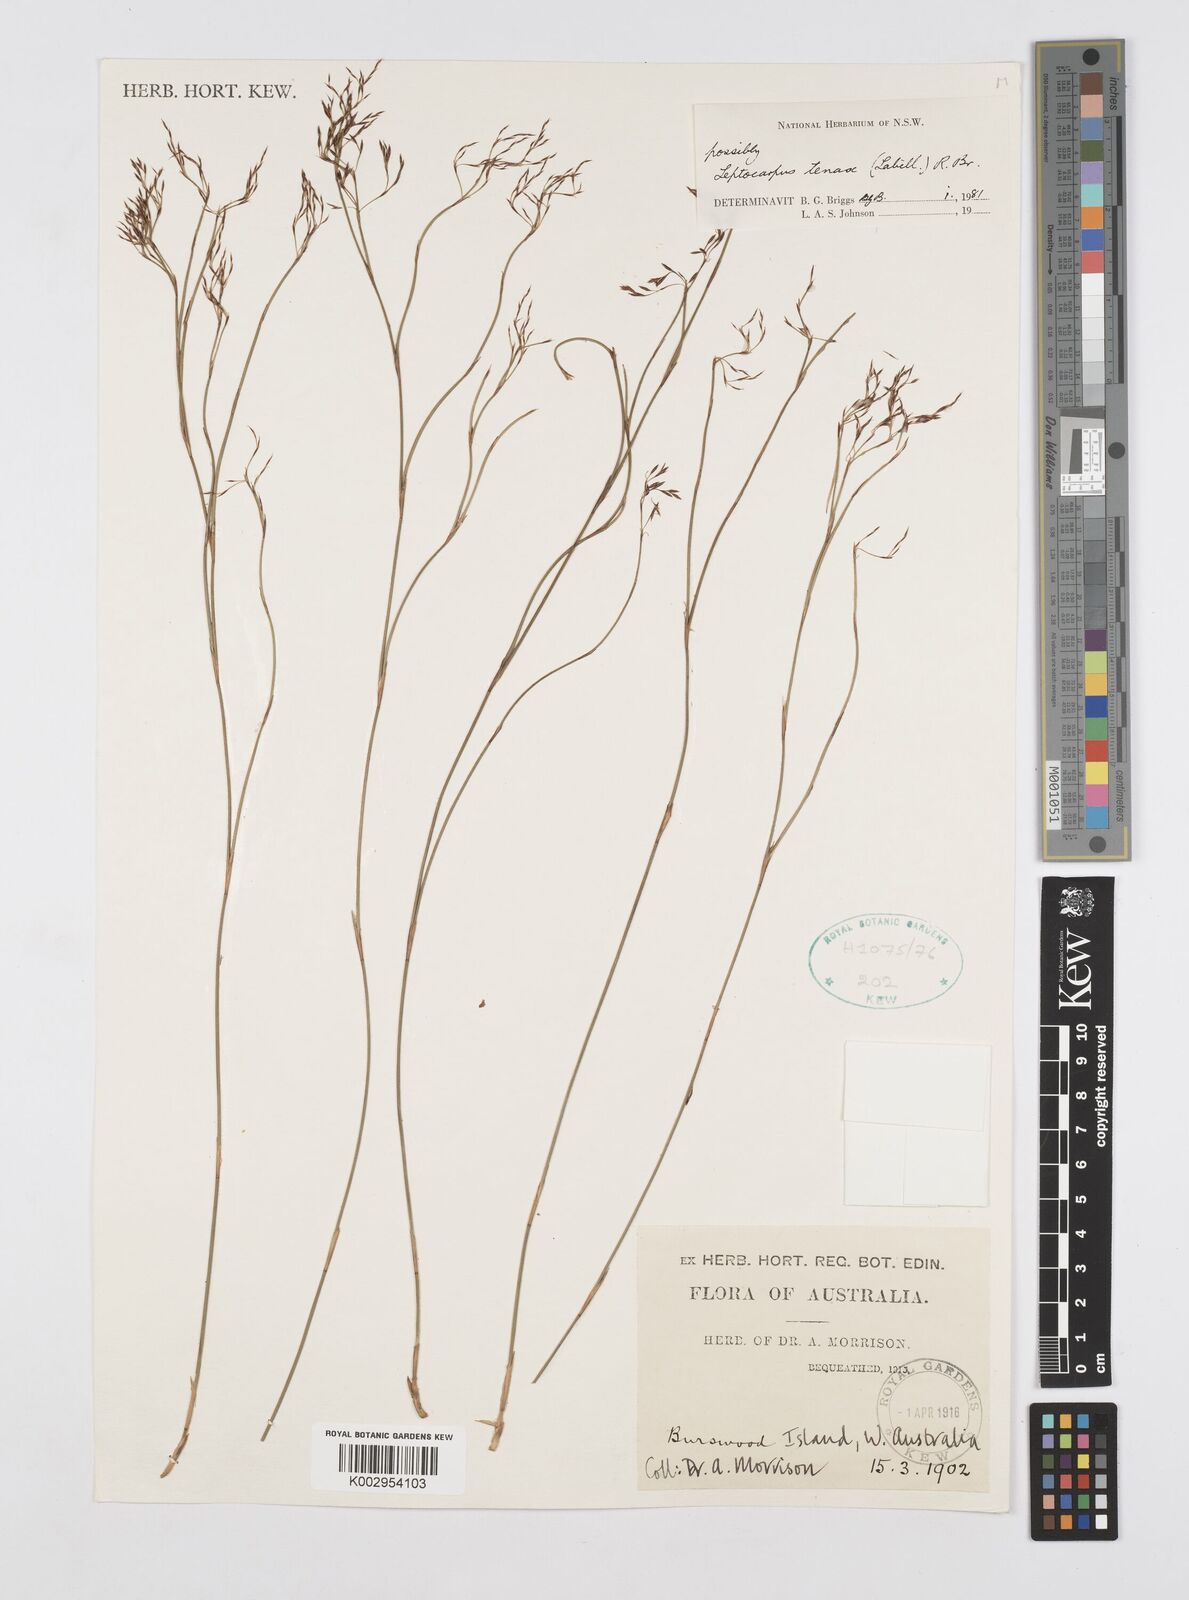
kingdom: Plantae
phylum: Tracheophyta
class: Liliopsida
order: Poales
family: Restionaceae
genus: Leptocarpus
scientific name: Leptocarpus tenax
